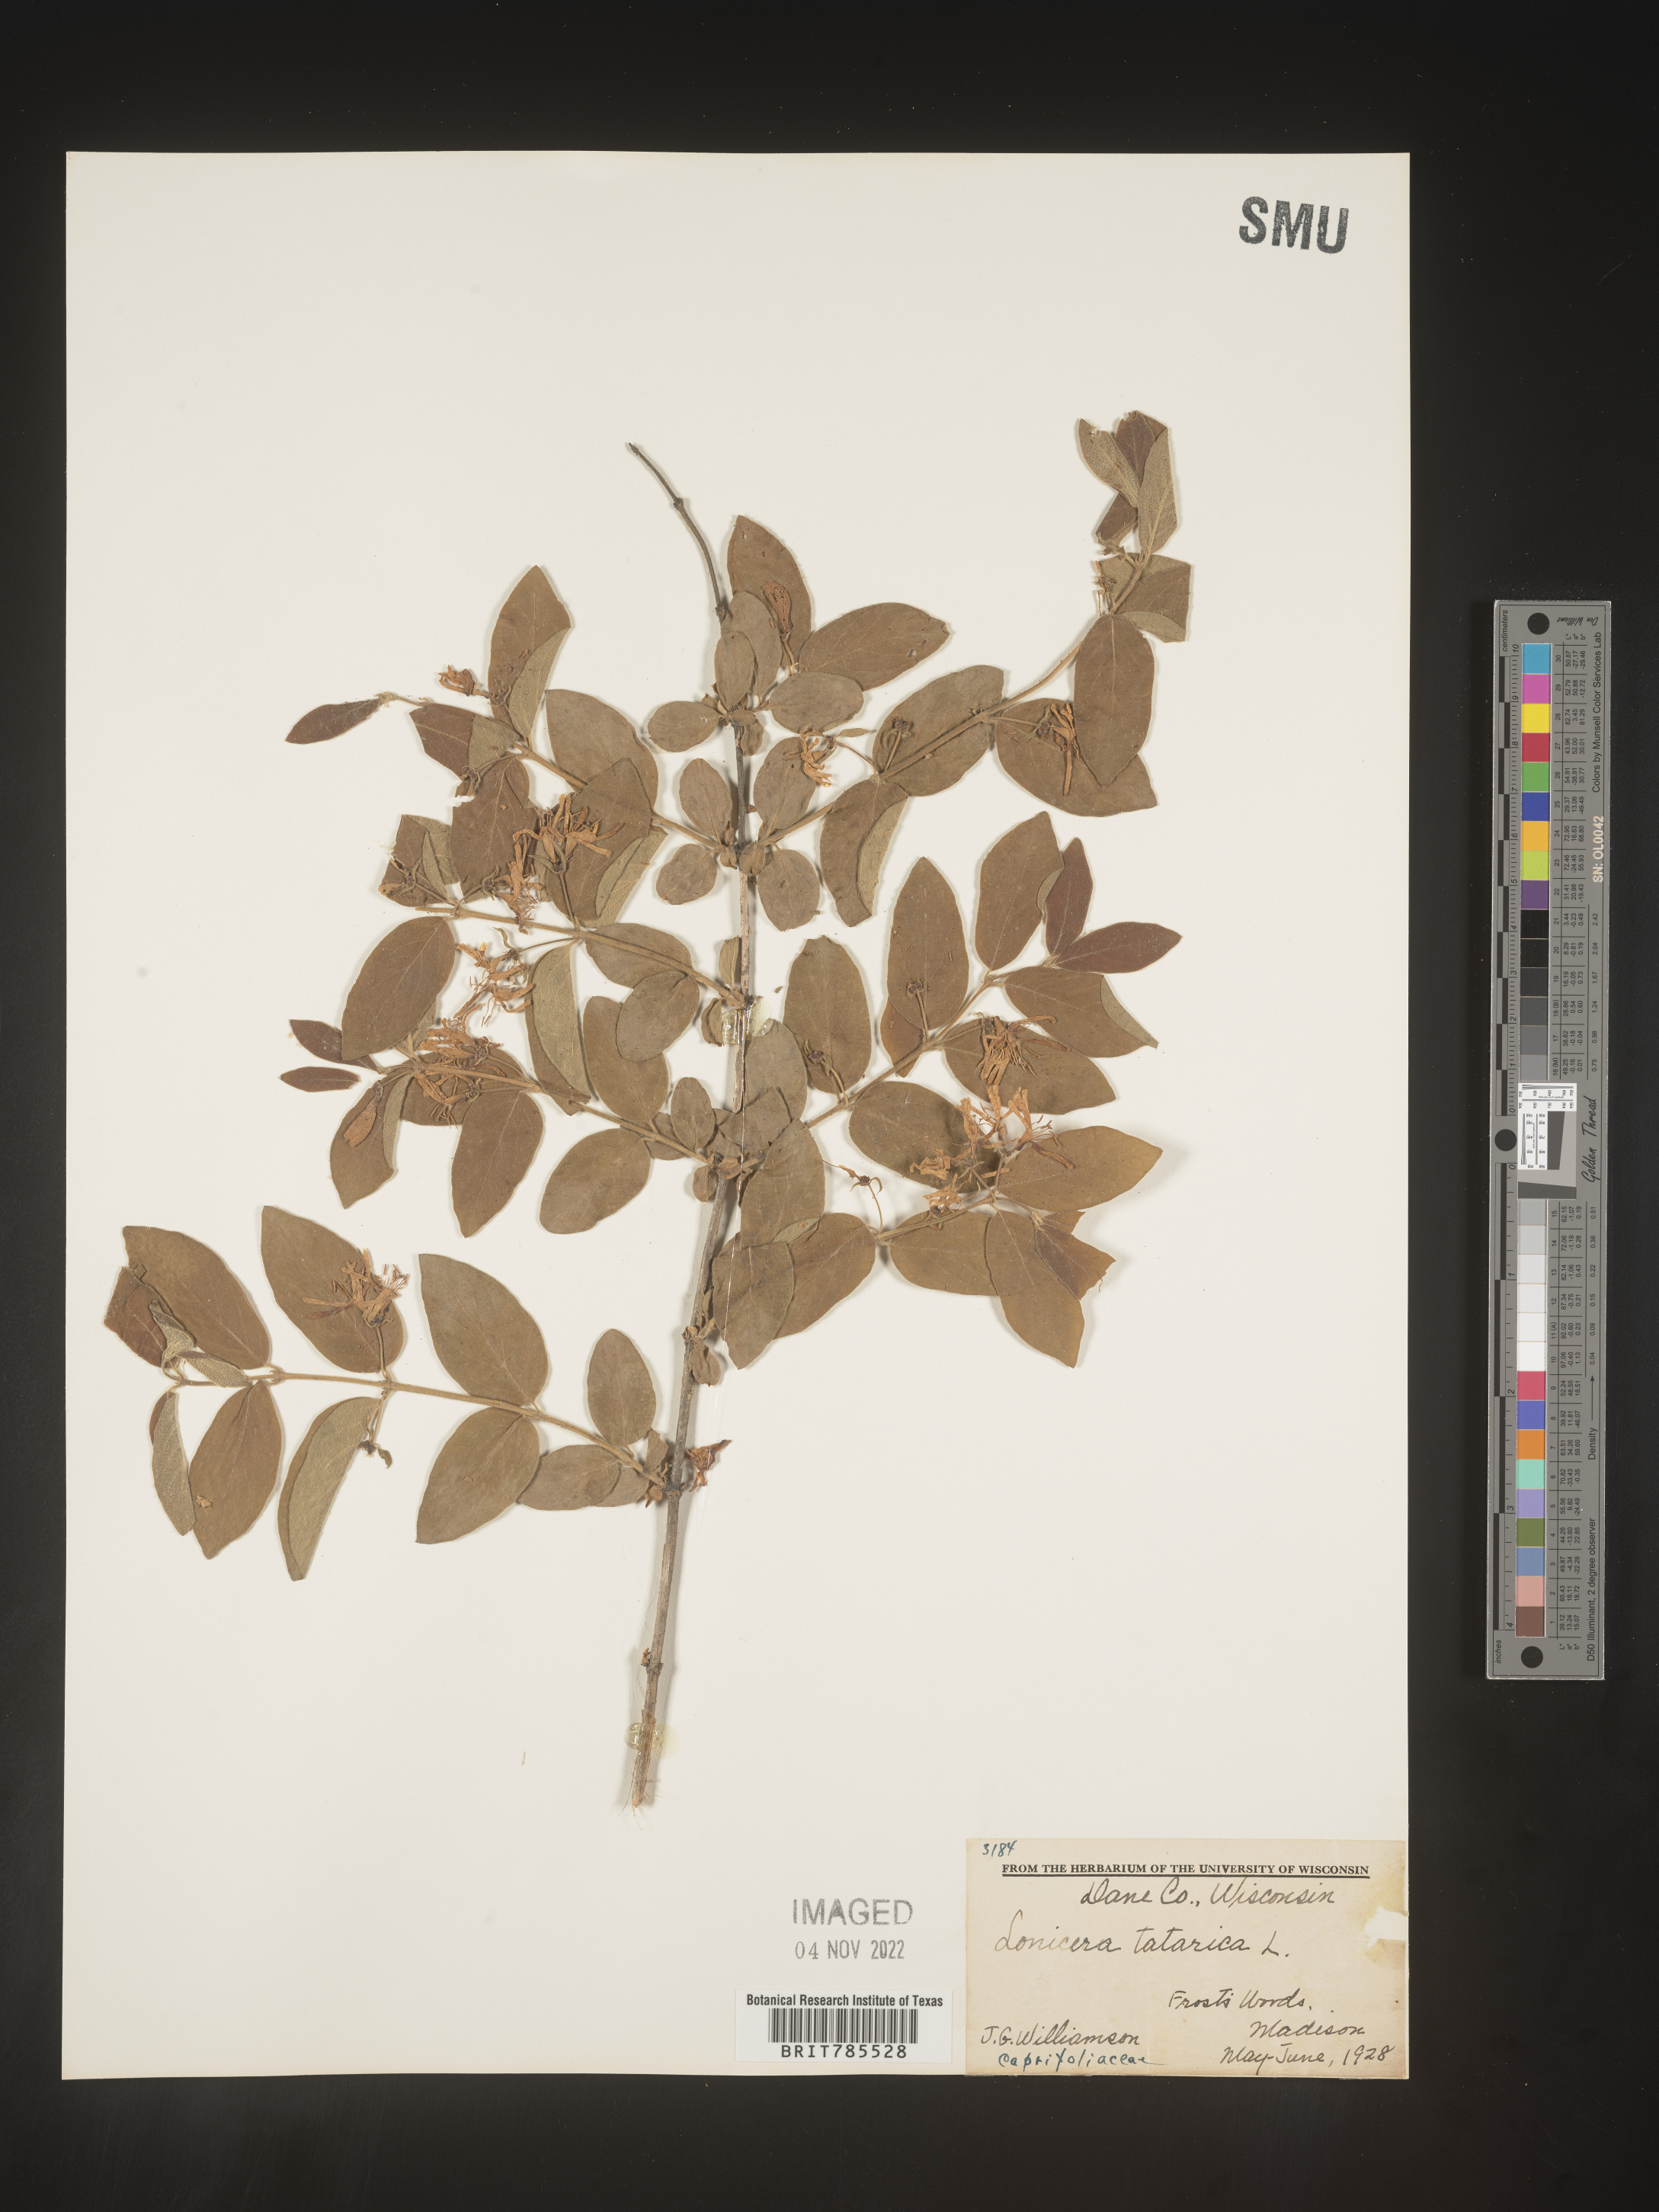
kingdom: Plantae
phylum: Tracheophyta
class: Magnoliopsida
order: Dipsacales
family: Caprifoliaceae
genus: Lonicera
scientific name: Lonicera
